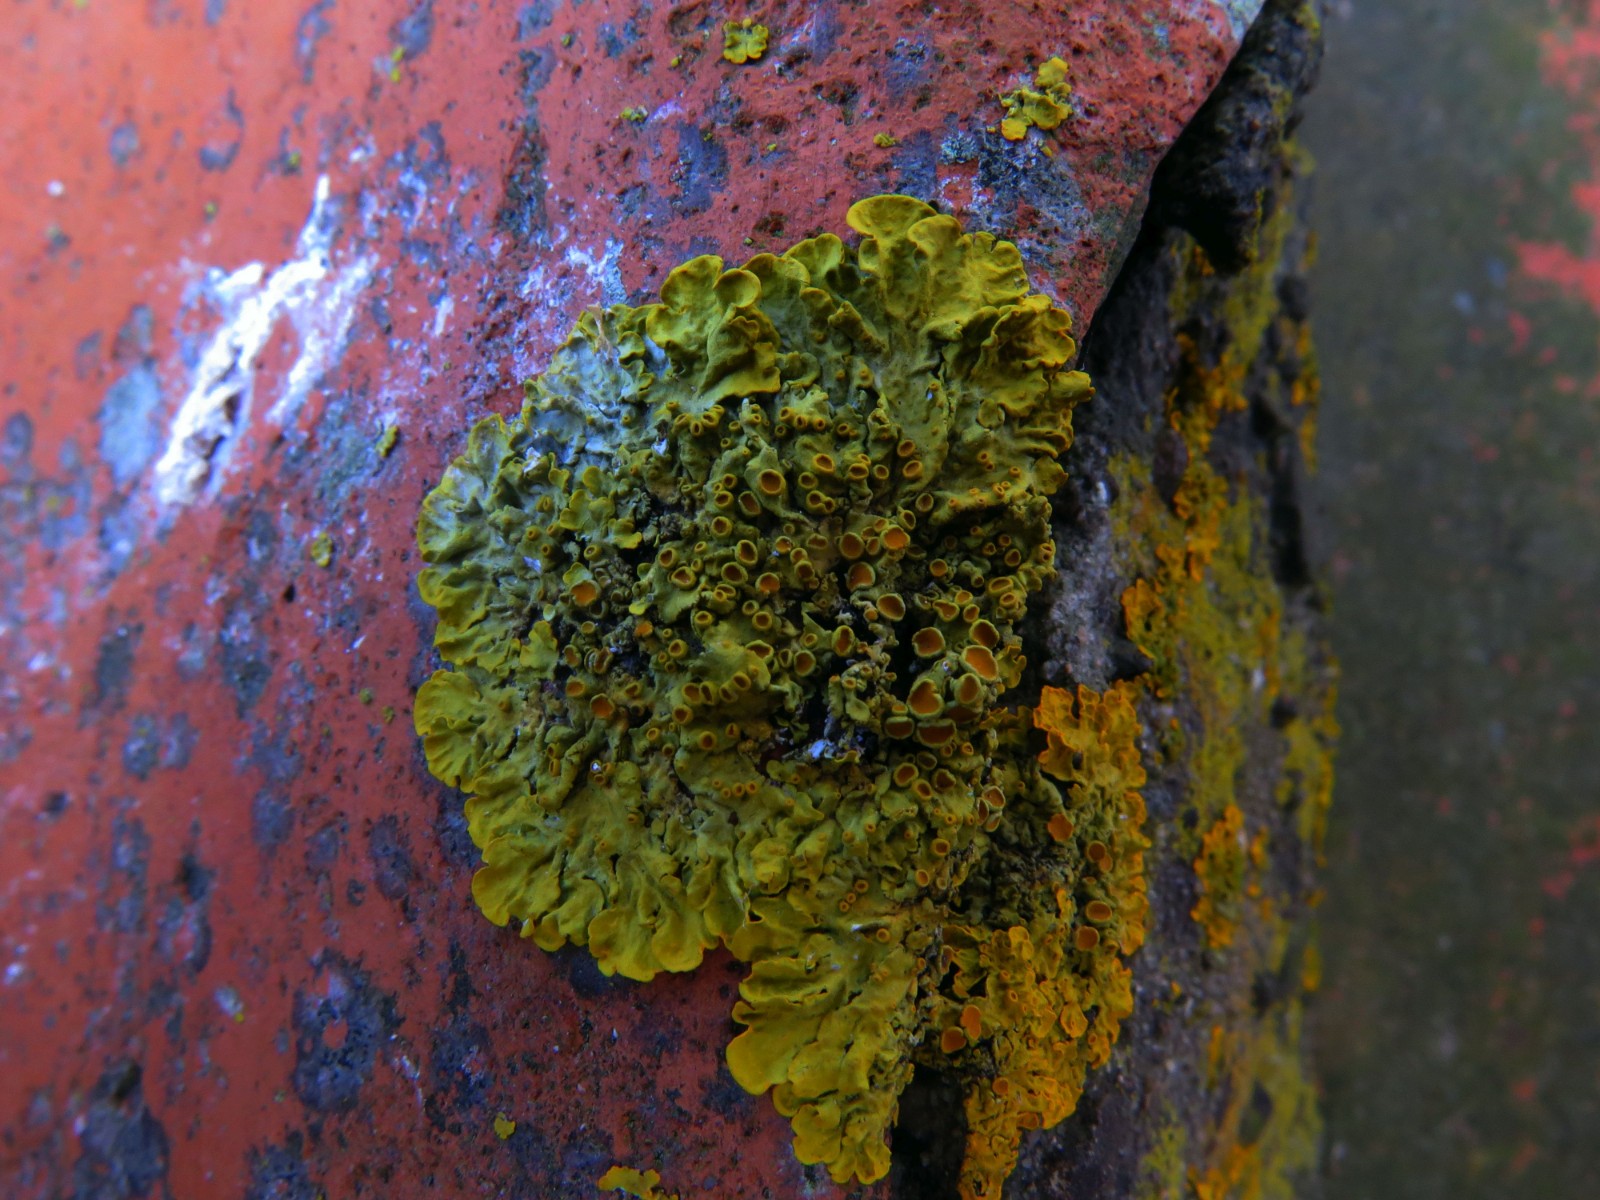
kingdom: Fungi
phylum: Ascomycota
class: Lecanoromycetes
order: Teloschistales
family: Teloschistaceae
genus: Xanthoria
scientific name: Xanthoria parietina
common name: almindelig væggelav
